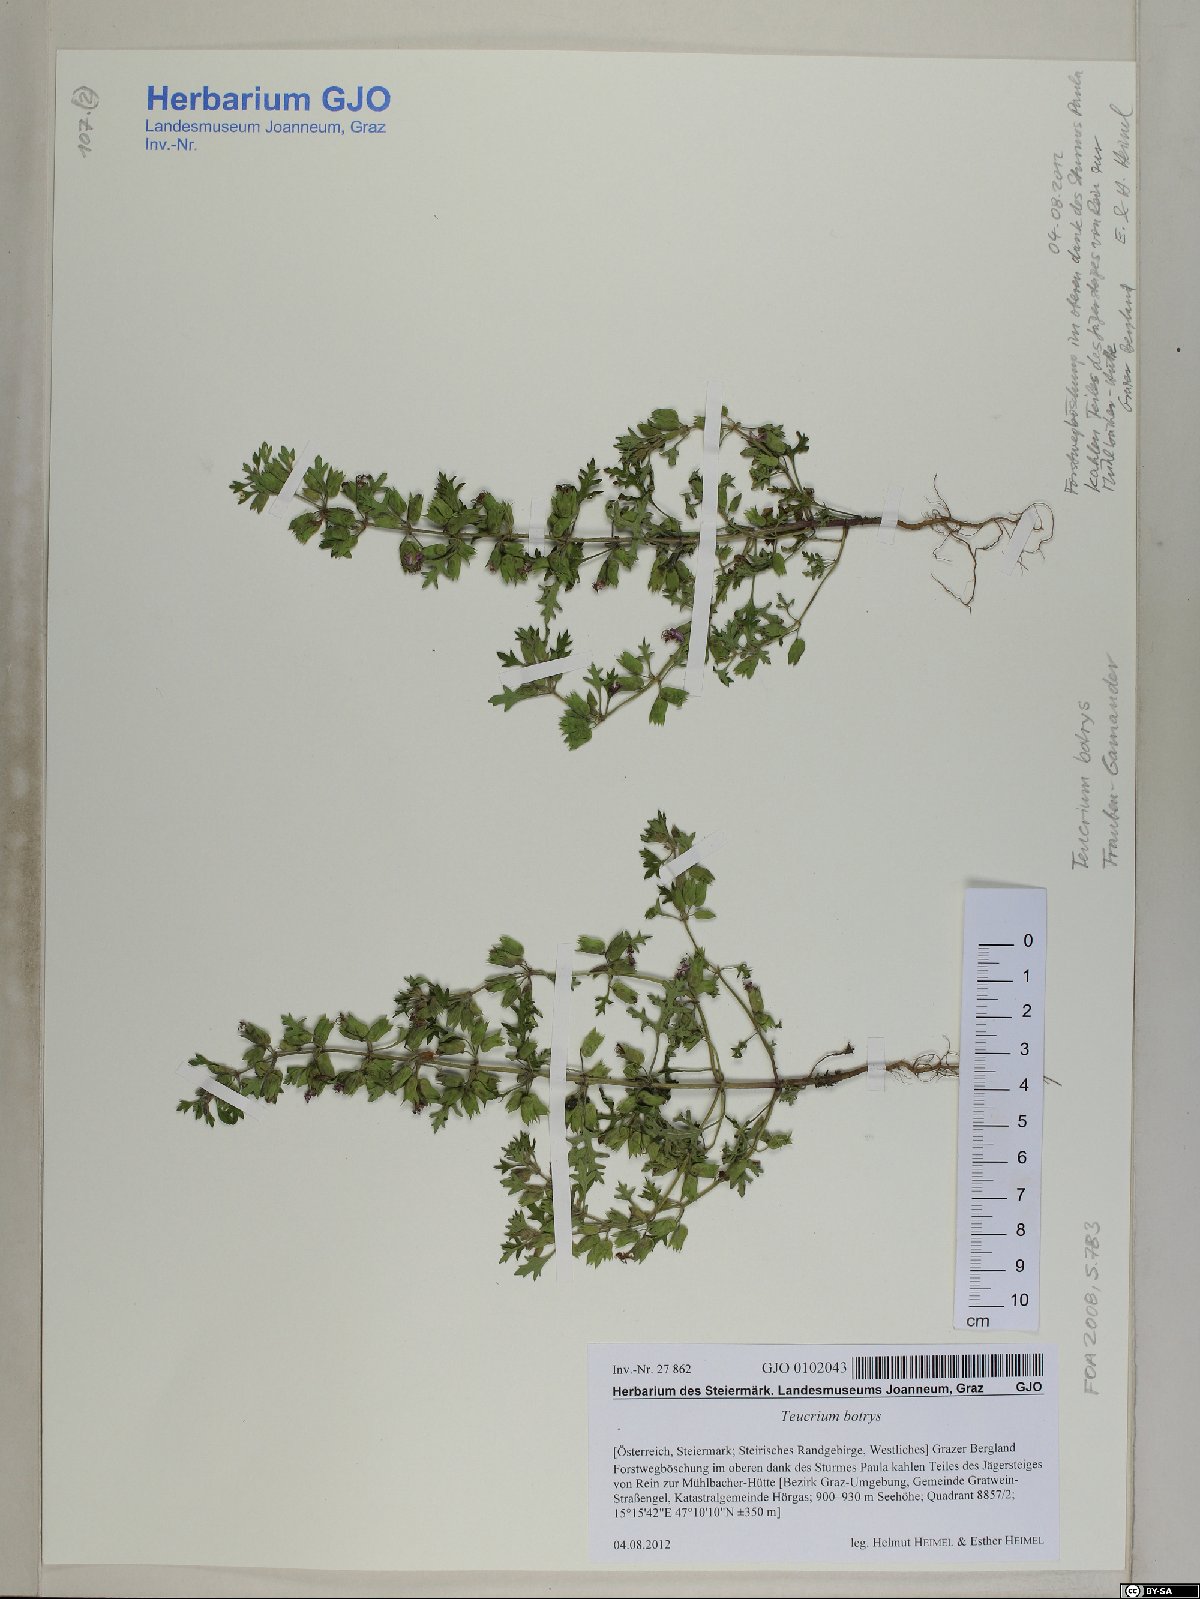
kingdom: Plantae
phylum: Tracheophyta
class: Magnoliopsida
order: Lamiales
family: Lamiaceae
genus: Teucrium
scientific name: Teucrium botrys
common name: Cut-leaved germander
